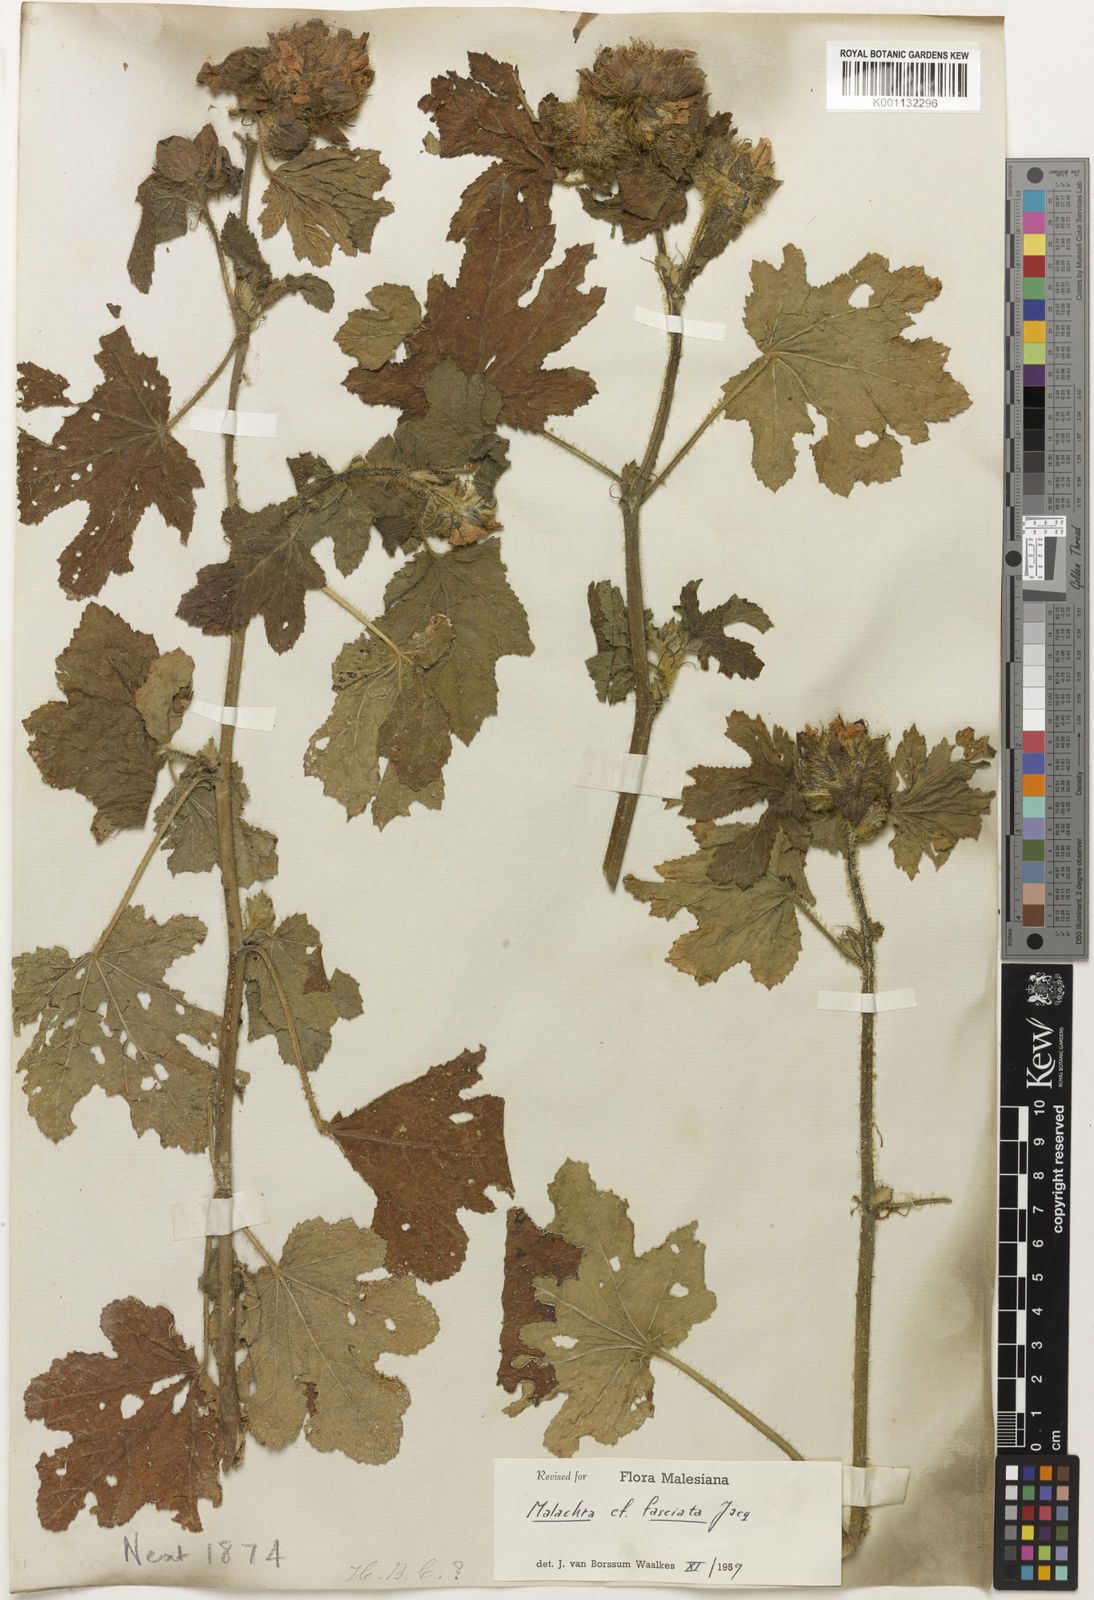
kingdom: Plantae
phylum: Tracheophyta
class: Magnoliopsida
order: Malvales
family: Malvaceae
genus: Malachra
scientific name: Malachra
